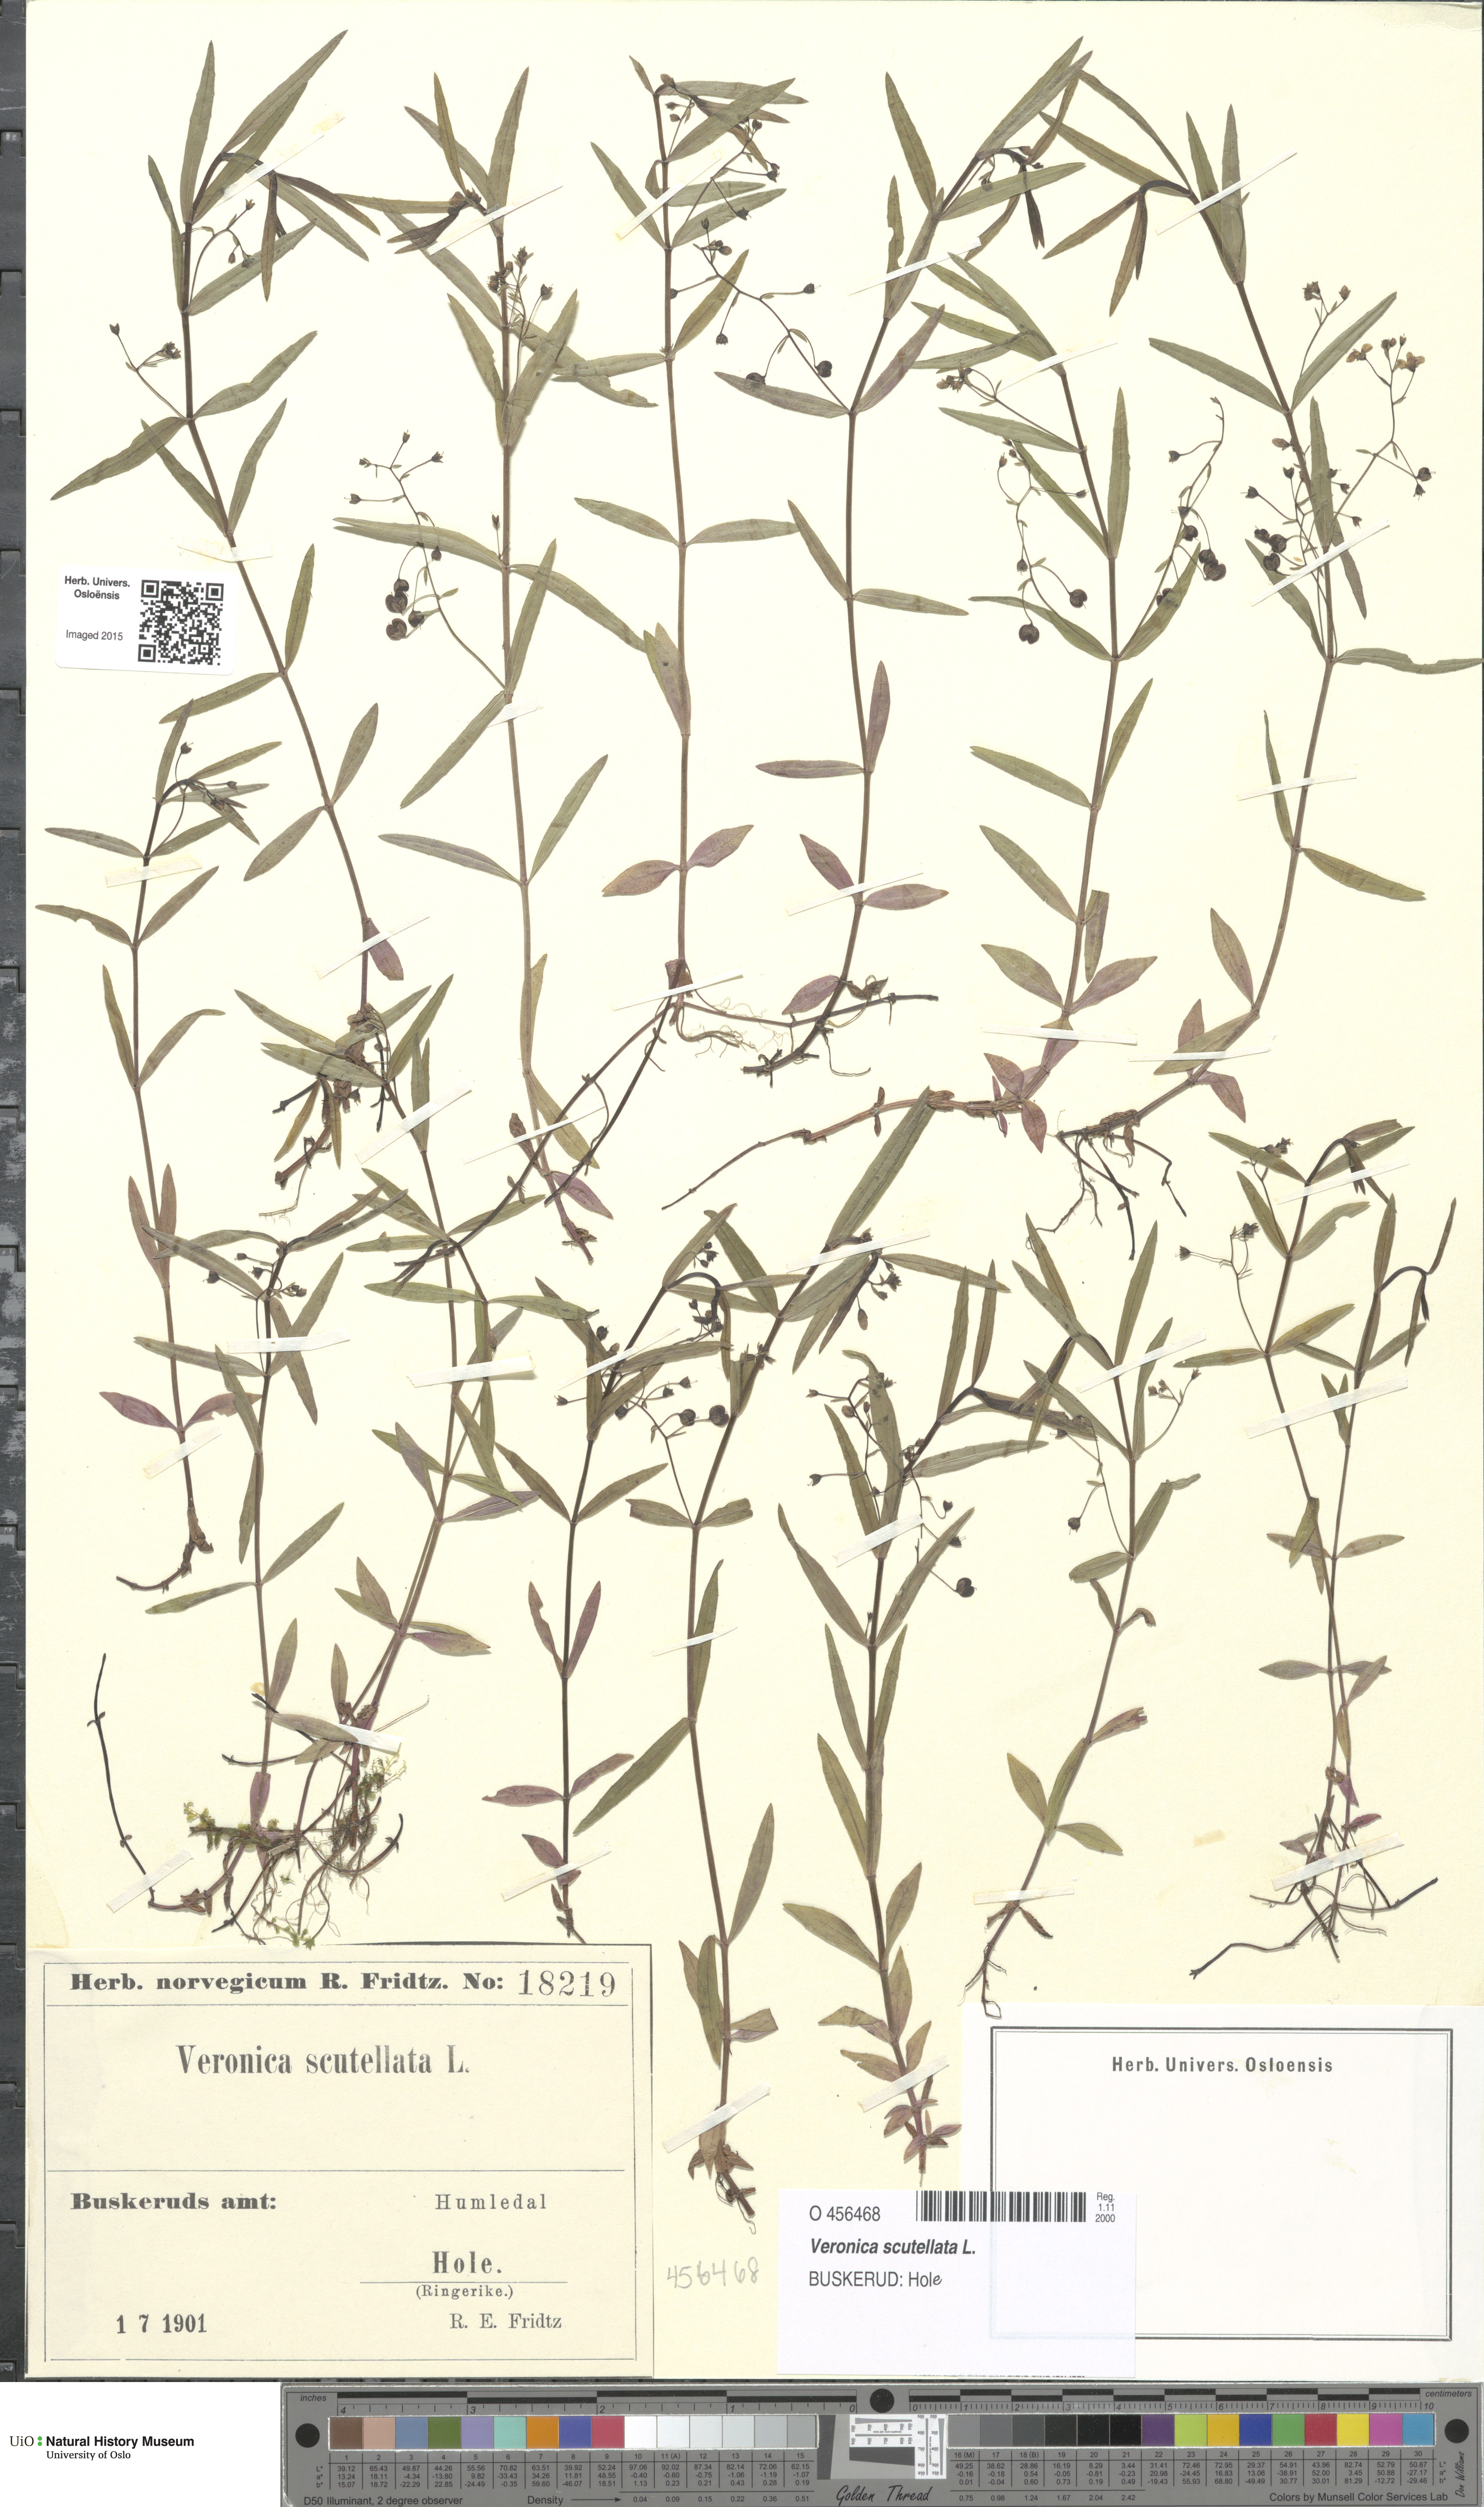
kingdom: Plantae
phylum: Tracheophyta
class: Magnoliopsida
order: Lamiales
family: Plantaginaceae
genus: Veronica
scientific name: Veronica scutellata
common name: Marsh speedwell
